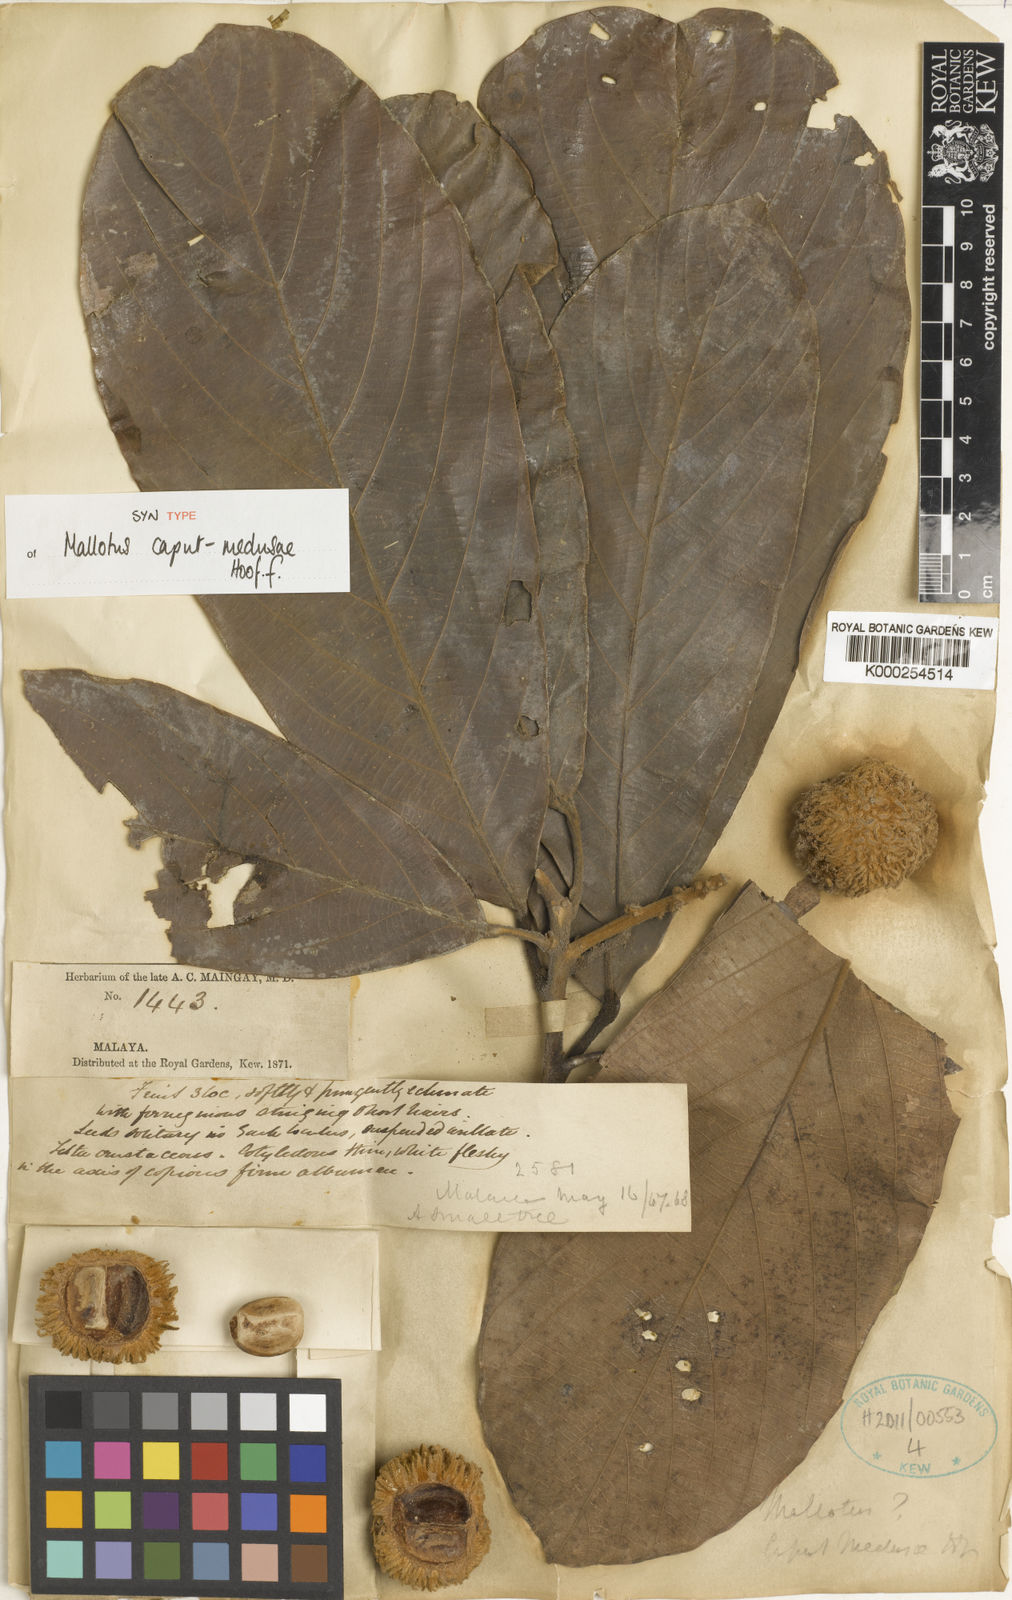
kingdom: Plantae
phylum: Tracheophyta
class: Magnoliopsida
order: Malpighiales
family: Euphorbiaceae
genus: Ptychopyxis
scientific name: Ptychopyxis caput-medusae
